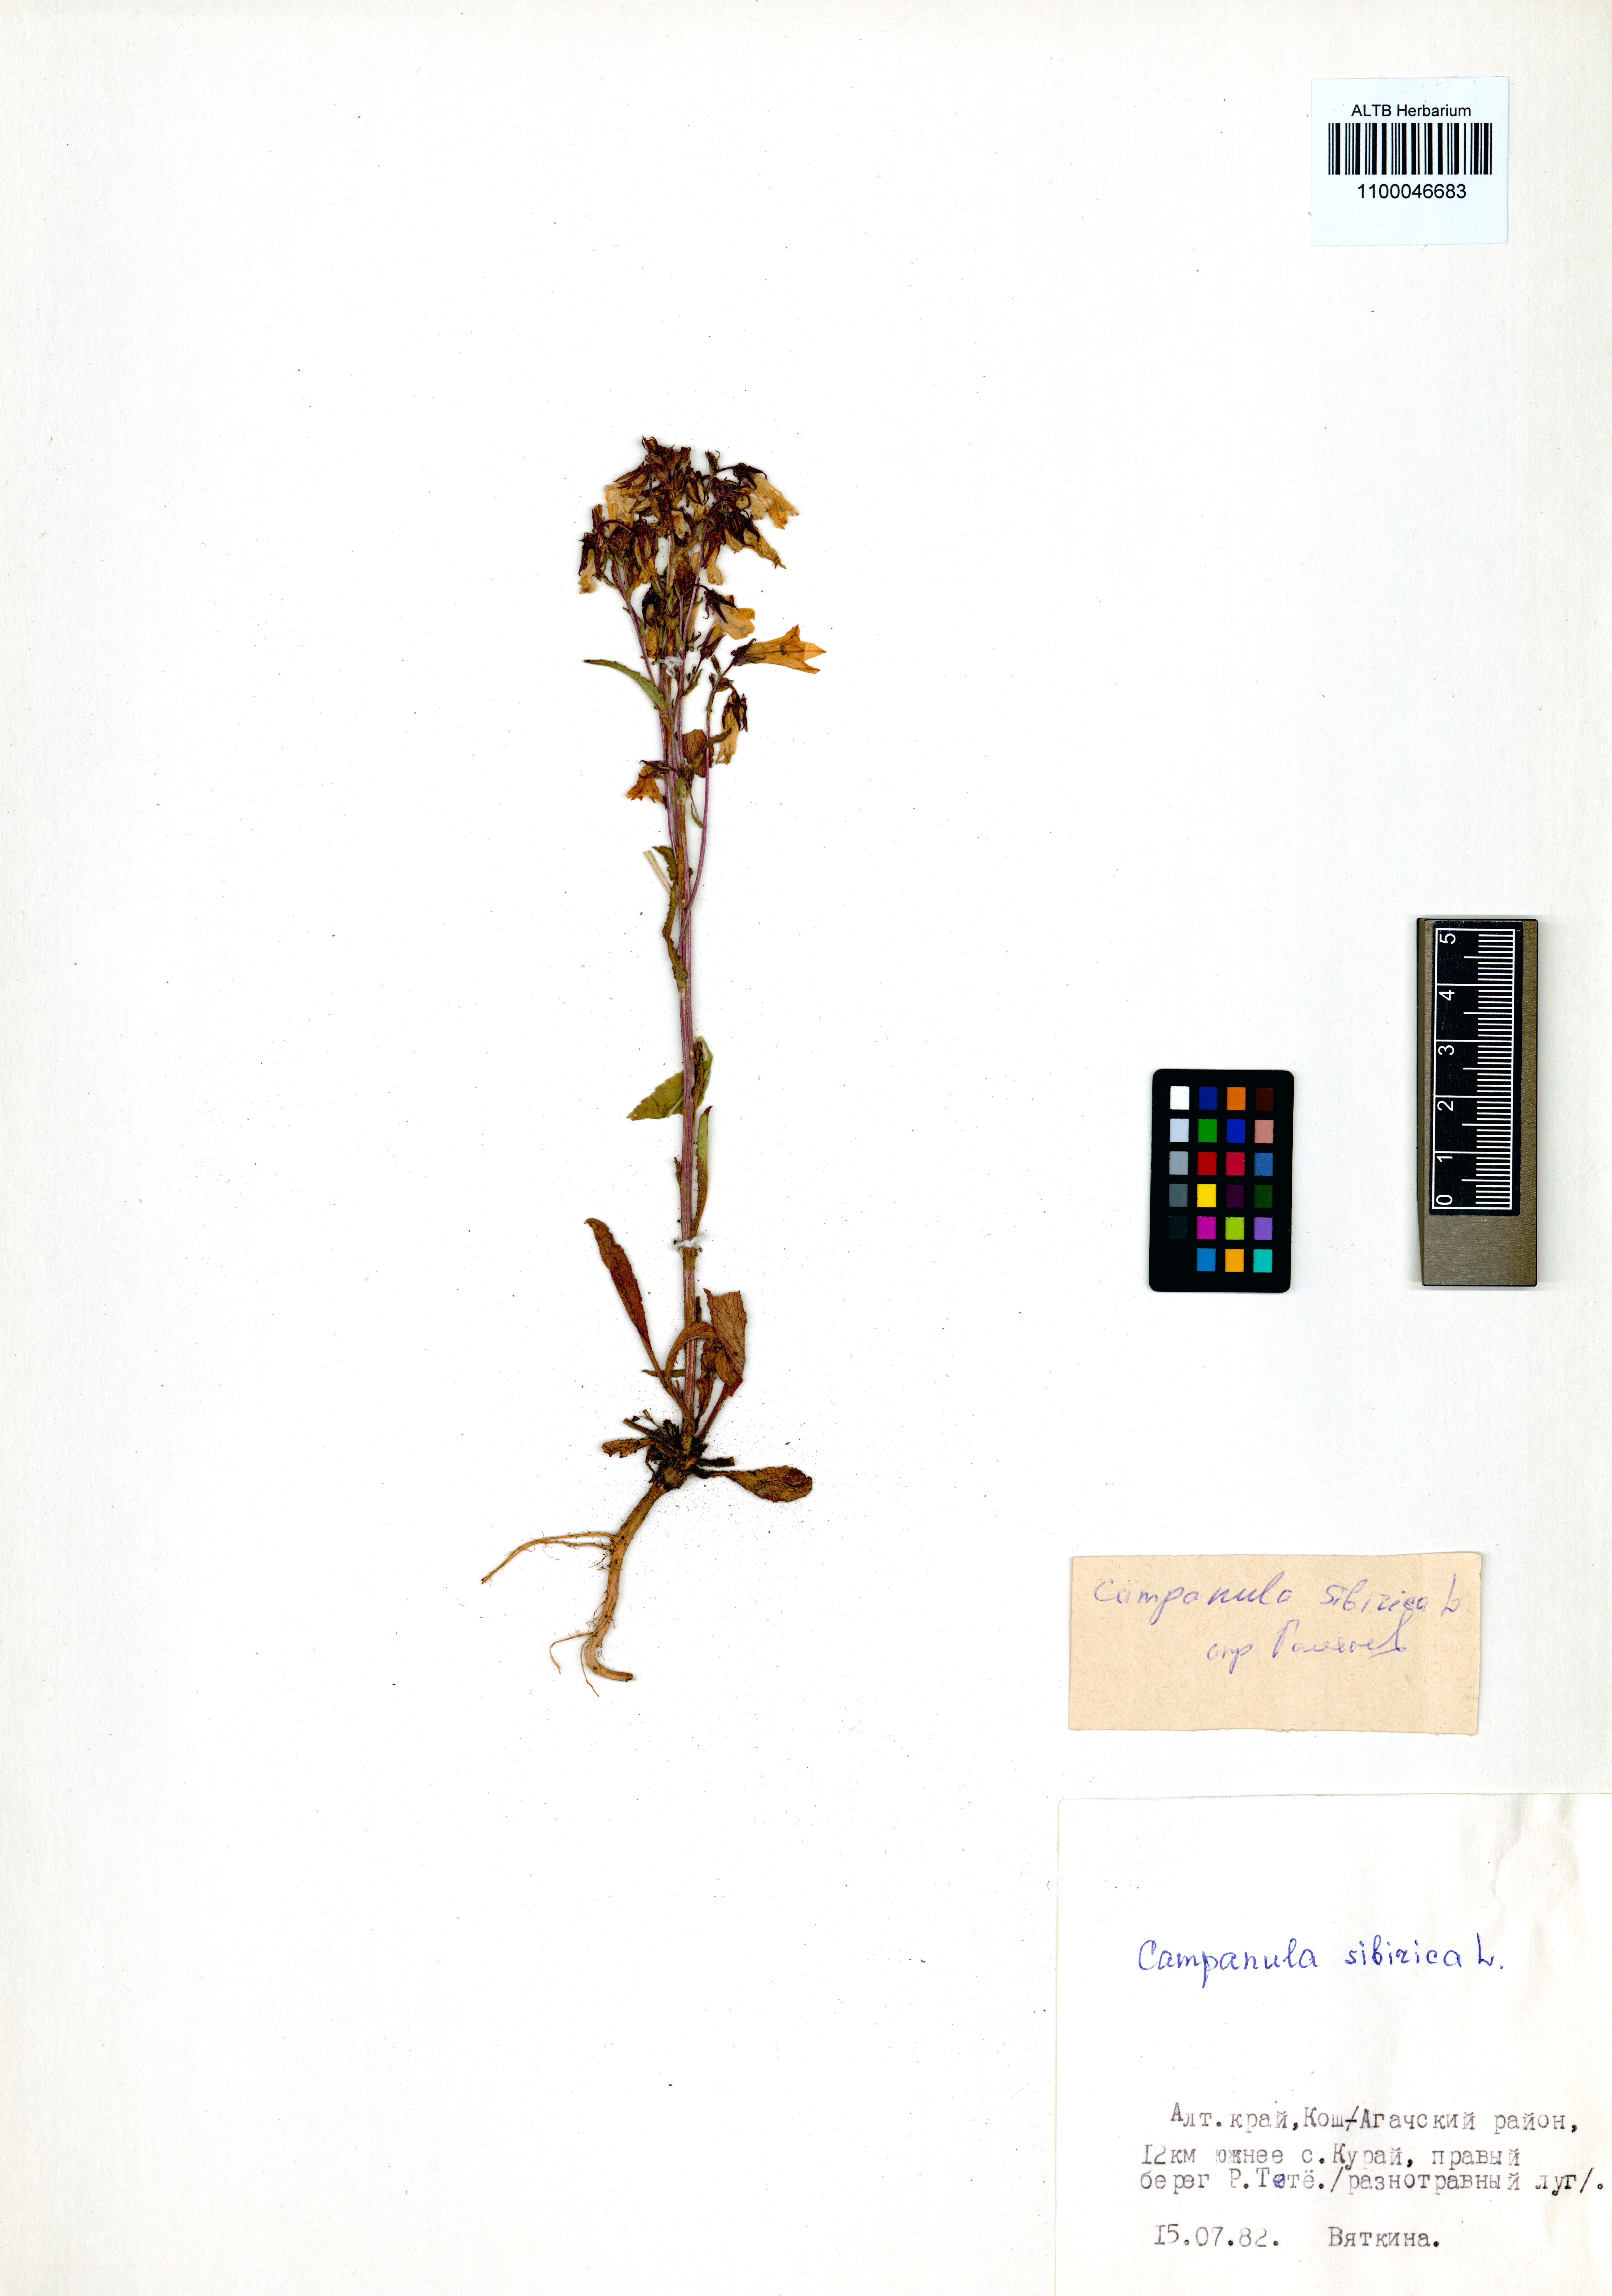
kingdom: Plantae
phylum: Tracheophyta
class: Magnoliopsida
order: Asterales
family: Campanulaceae
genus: Campanula
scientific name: Campanula sibirica
